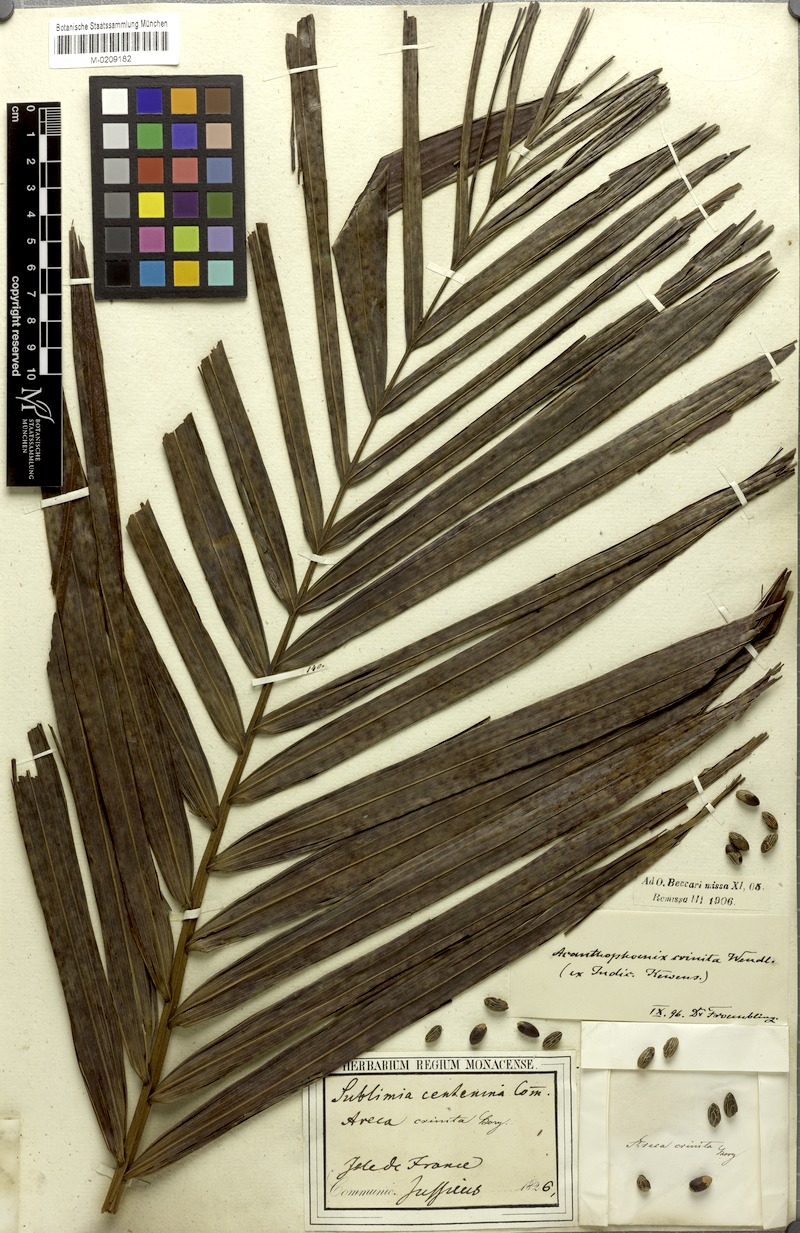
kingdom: Plantae
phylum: Tracheophyta
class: Liliopsida
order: Arecales
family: Arecaceae
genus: Acanthophoenix
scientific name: Acanthophoenix crinita
